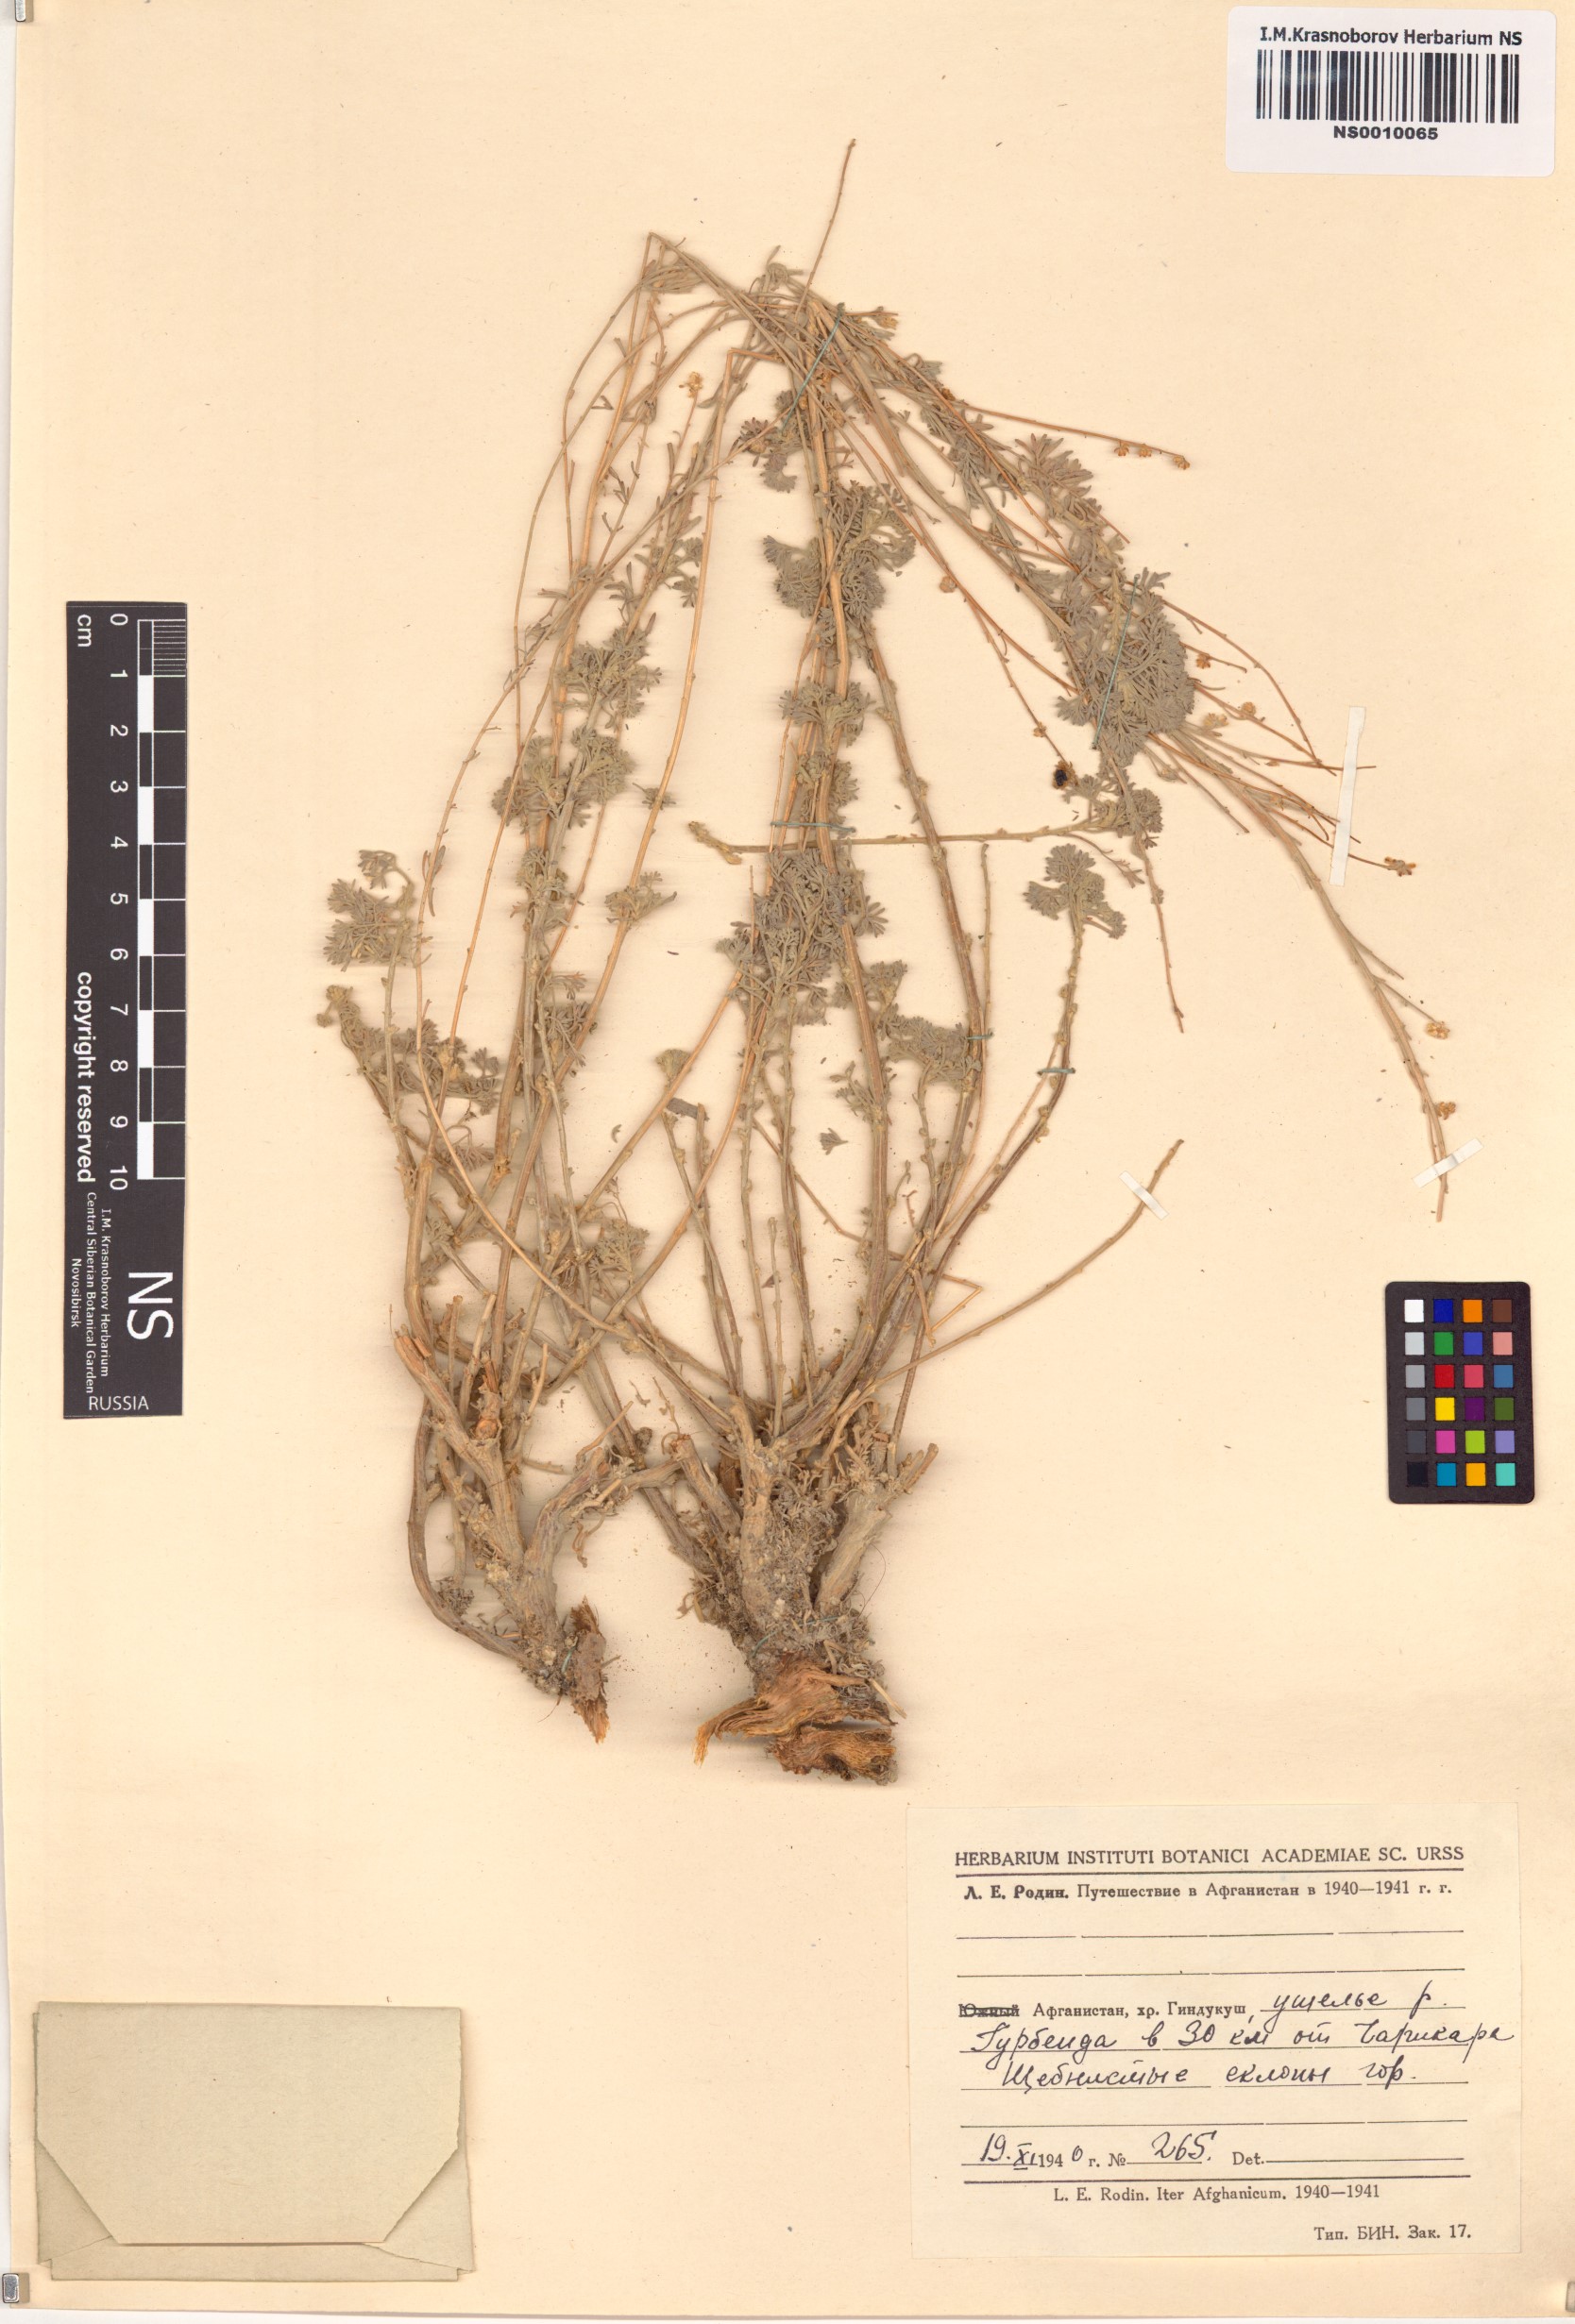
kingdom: Plantae
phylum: Tracheophyta
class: Magnoliopsida
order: Asterales
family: Asteraceae
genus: Artemisia
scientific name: Artemisia rutifolia
